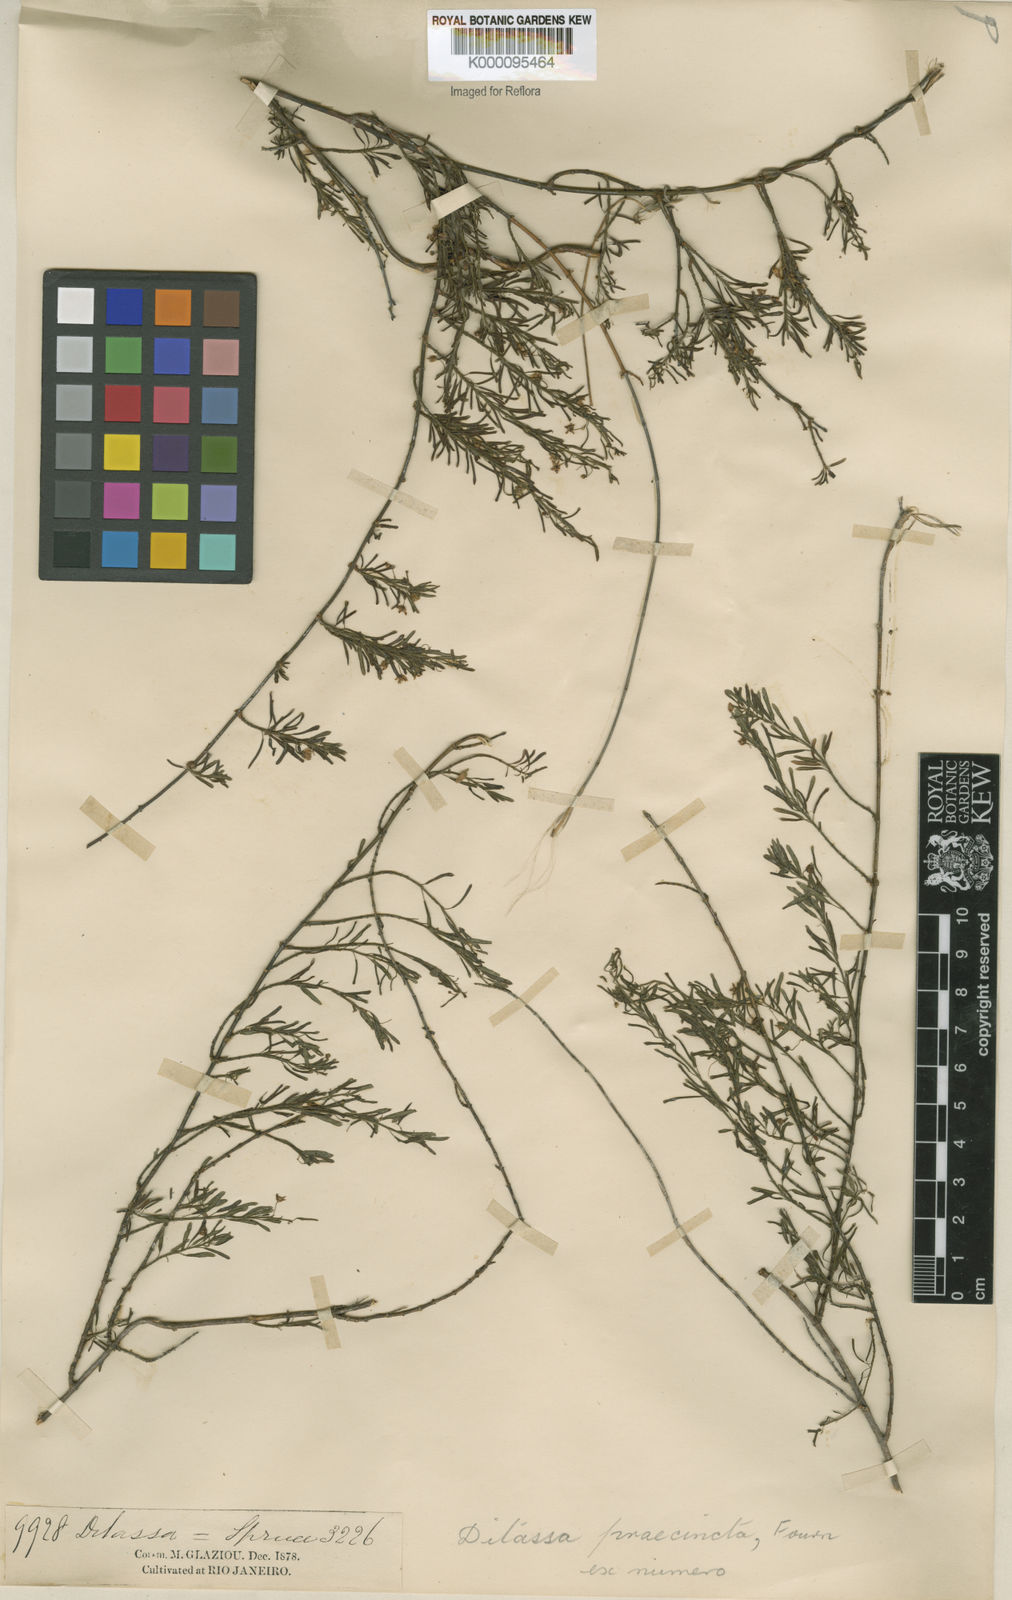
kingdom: Plantae
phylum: Tracheophyta
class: Magnoliopsida
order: Gentianales
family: Apocynaceae
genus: Ditassa
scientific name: Ditassa capillaris
